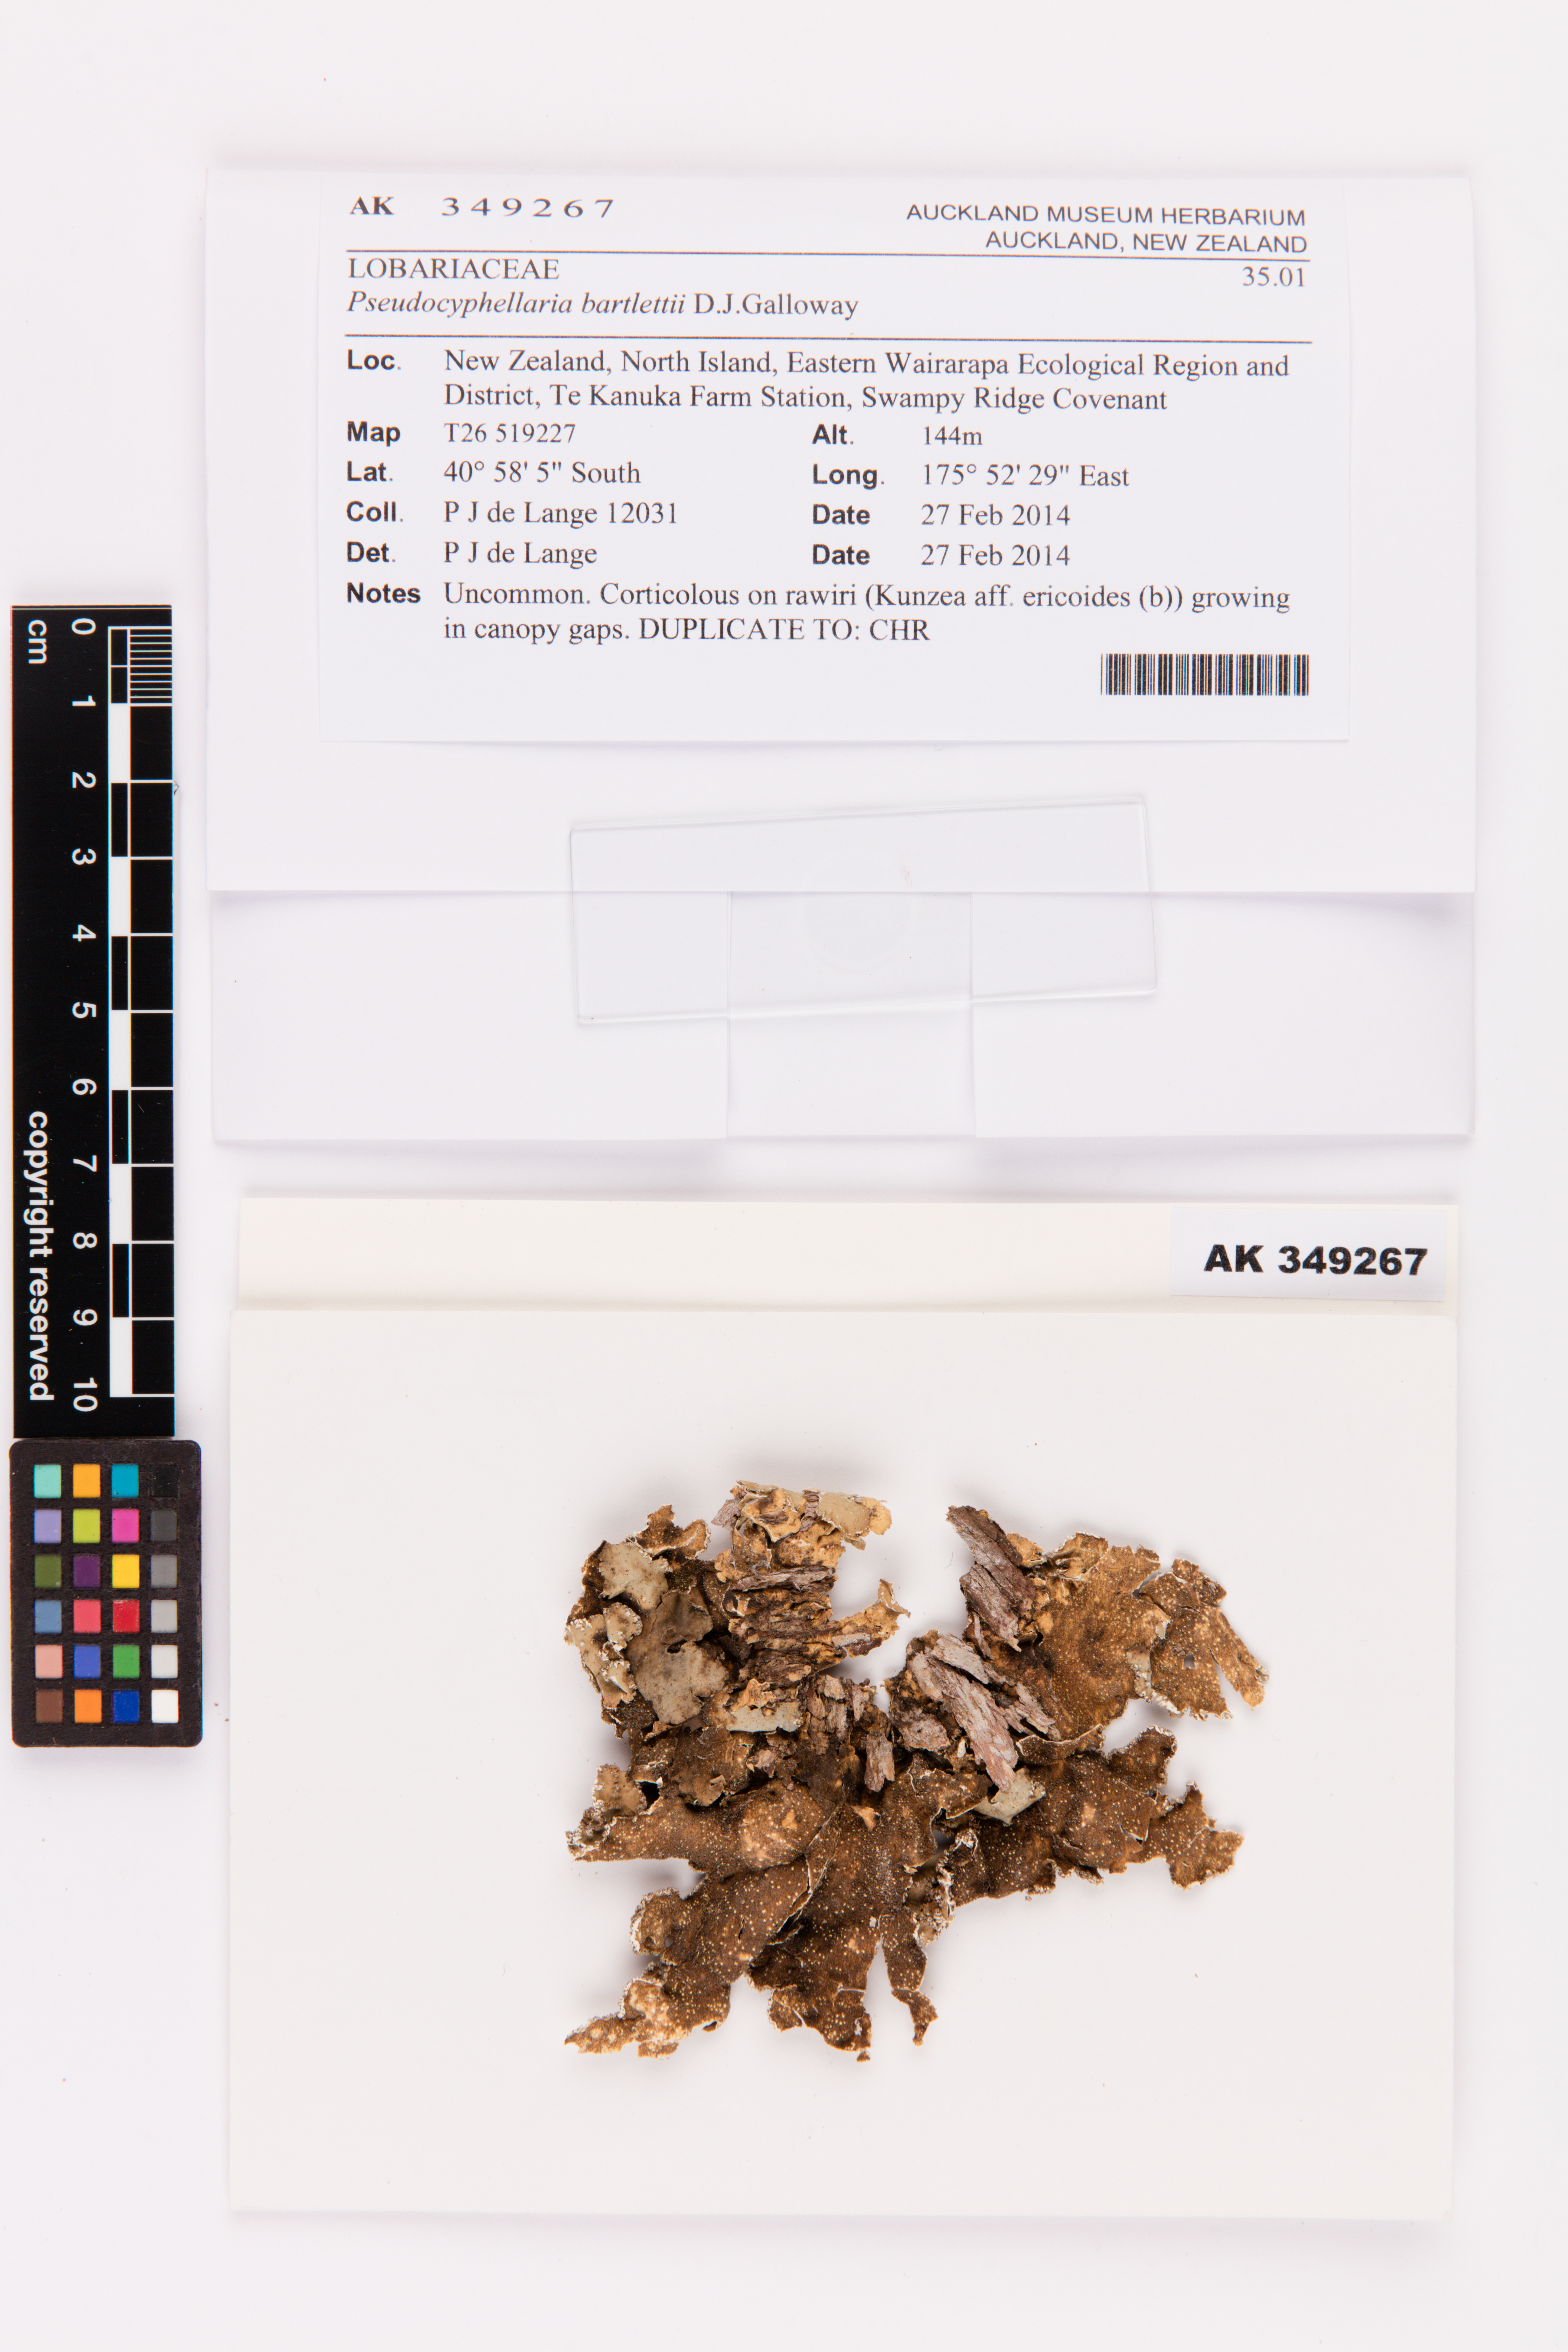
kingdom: Fungi
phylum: Ascomycota
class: Lecanoromycetes
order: Peltigerales
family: Lobariaceae
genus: Pseudocyphellaria
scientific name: Pseudocyphellaria bartlettii
